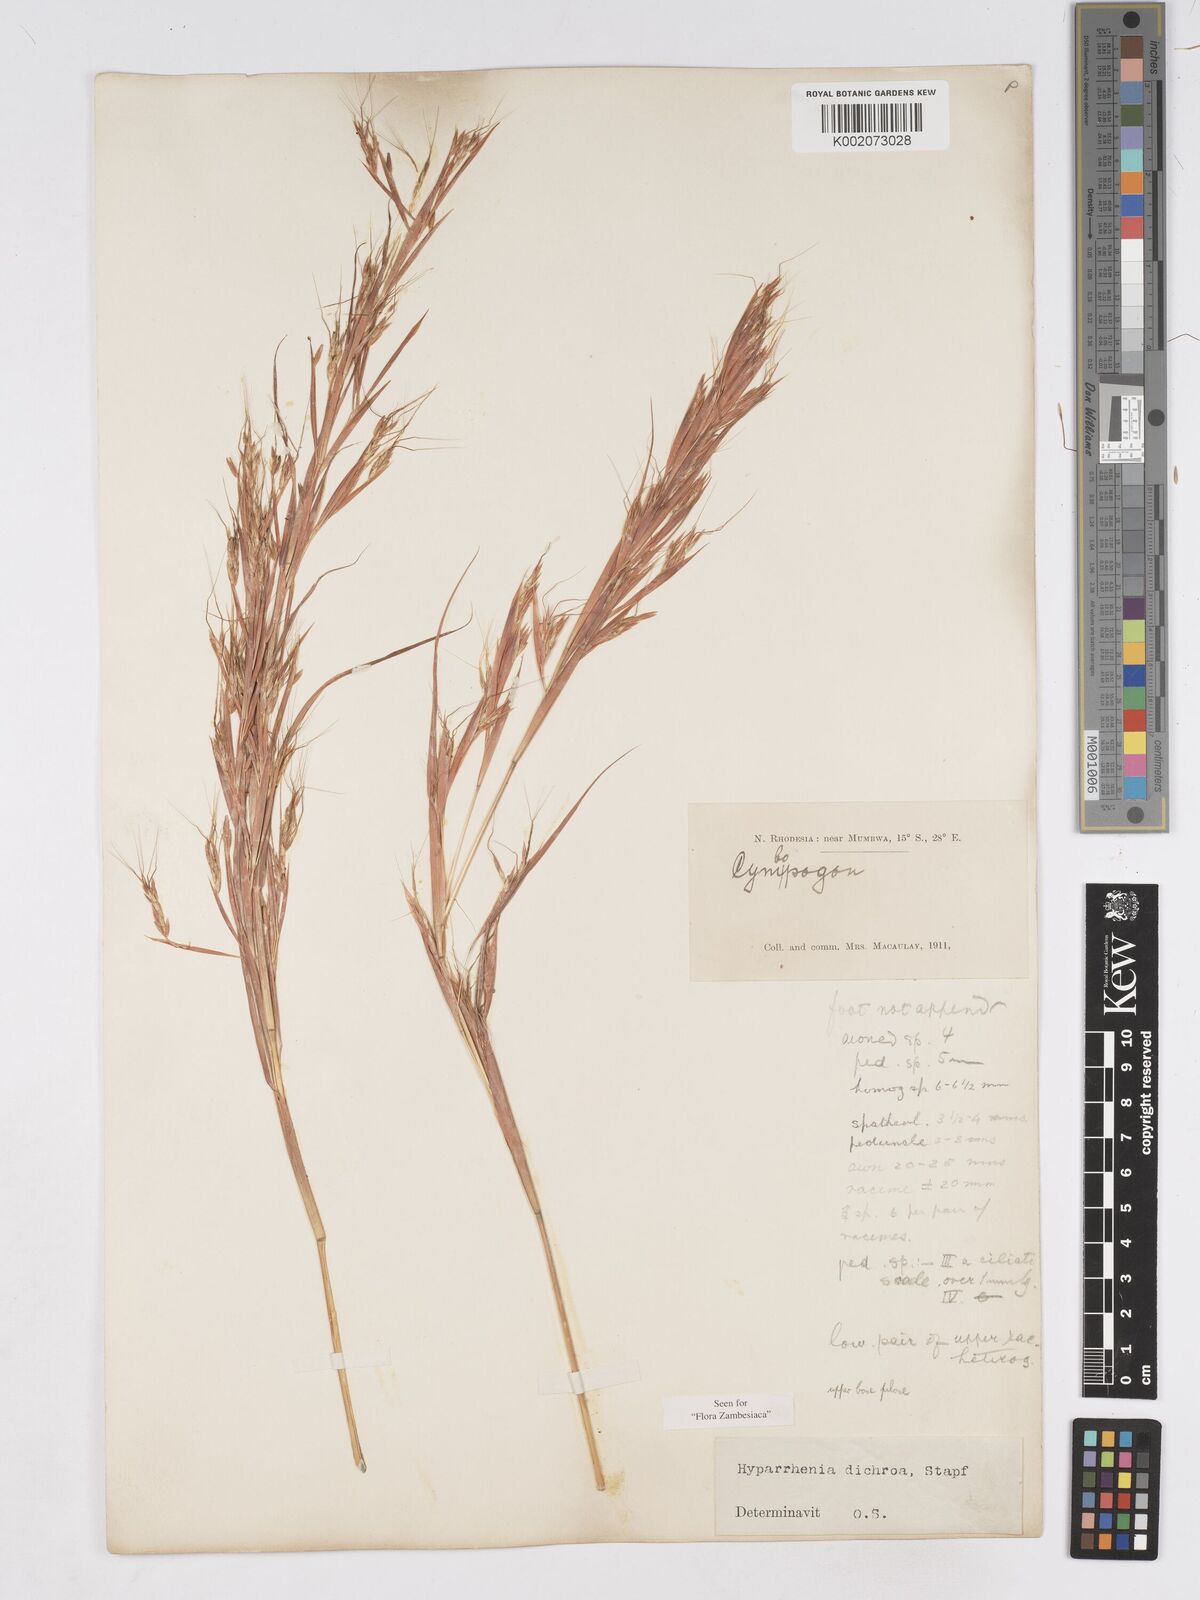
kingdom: Plantae
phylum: Tracheophyta
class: Liliopsida
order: Poales
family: Poaceae
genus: Hyparrhenia
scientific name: Hyparrhenia dichroa
